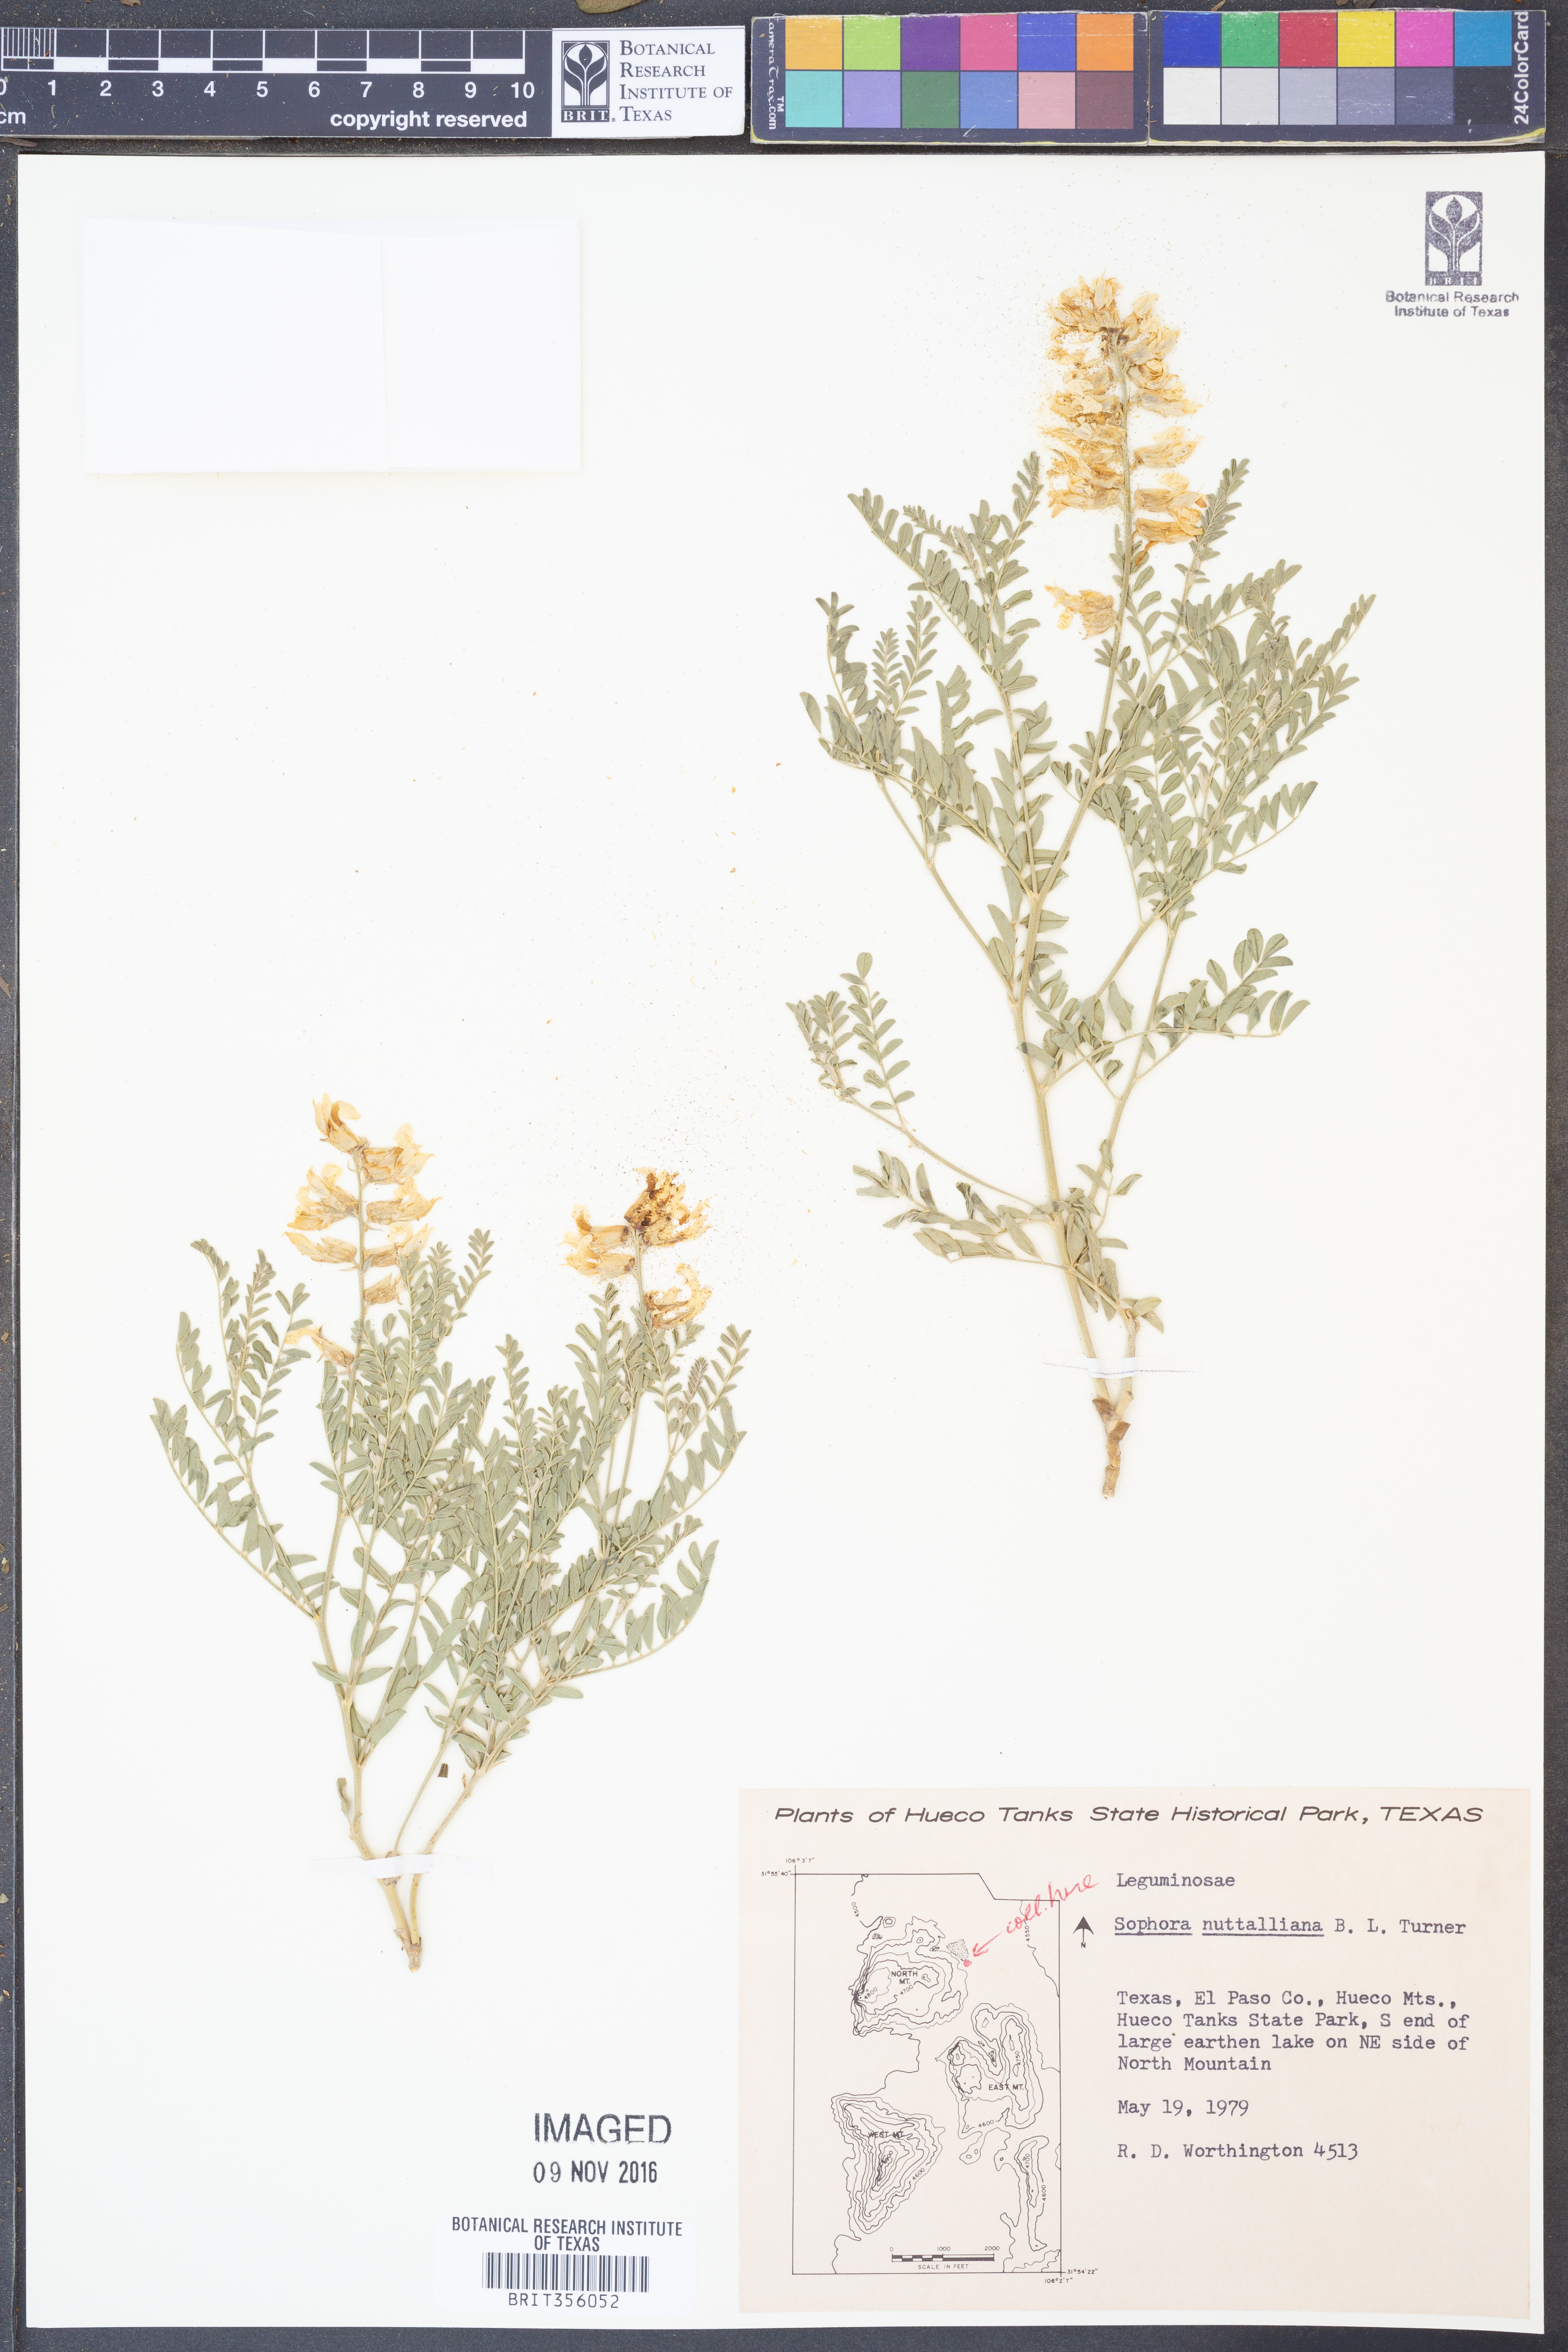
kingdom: Plantae
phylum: Tracheophyta
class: Magnoliopsida
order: Fabales
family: Fabaceae
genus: Sophora
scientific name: Sophora nuttalliana
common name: Silky sophora
